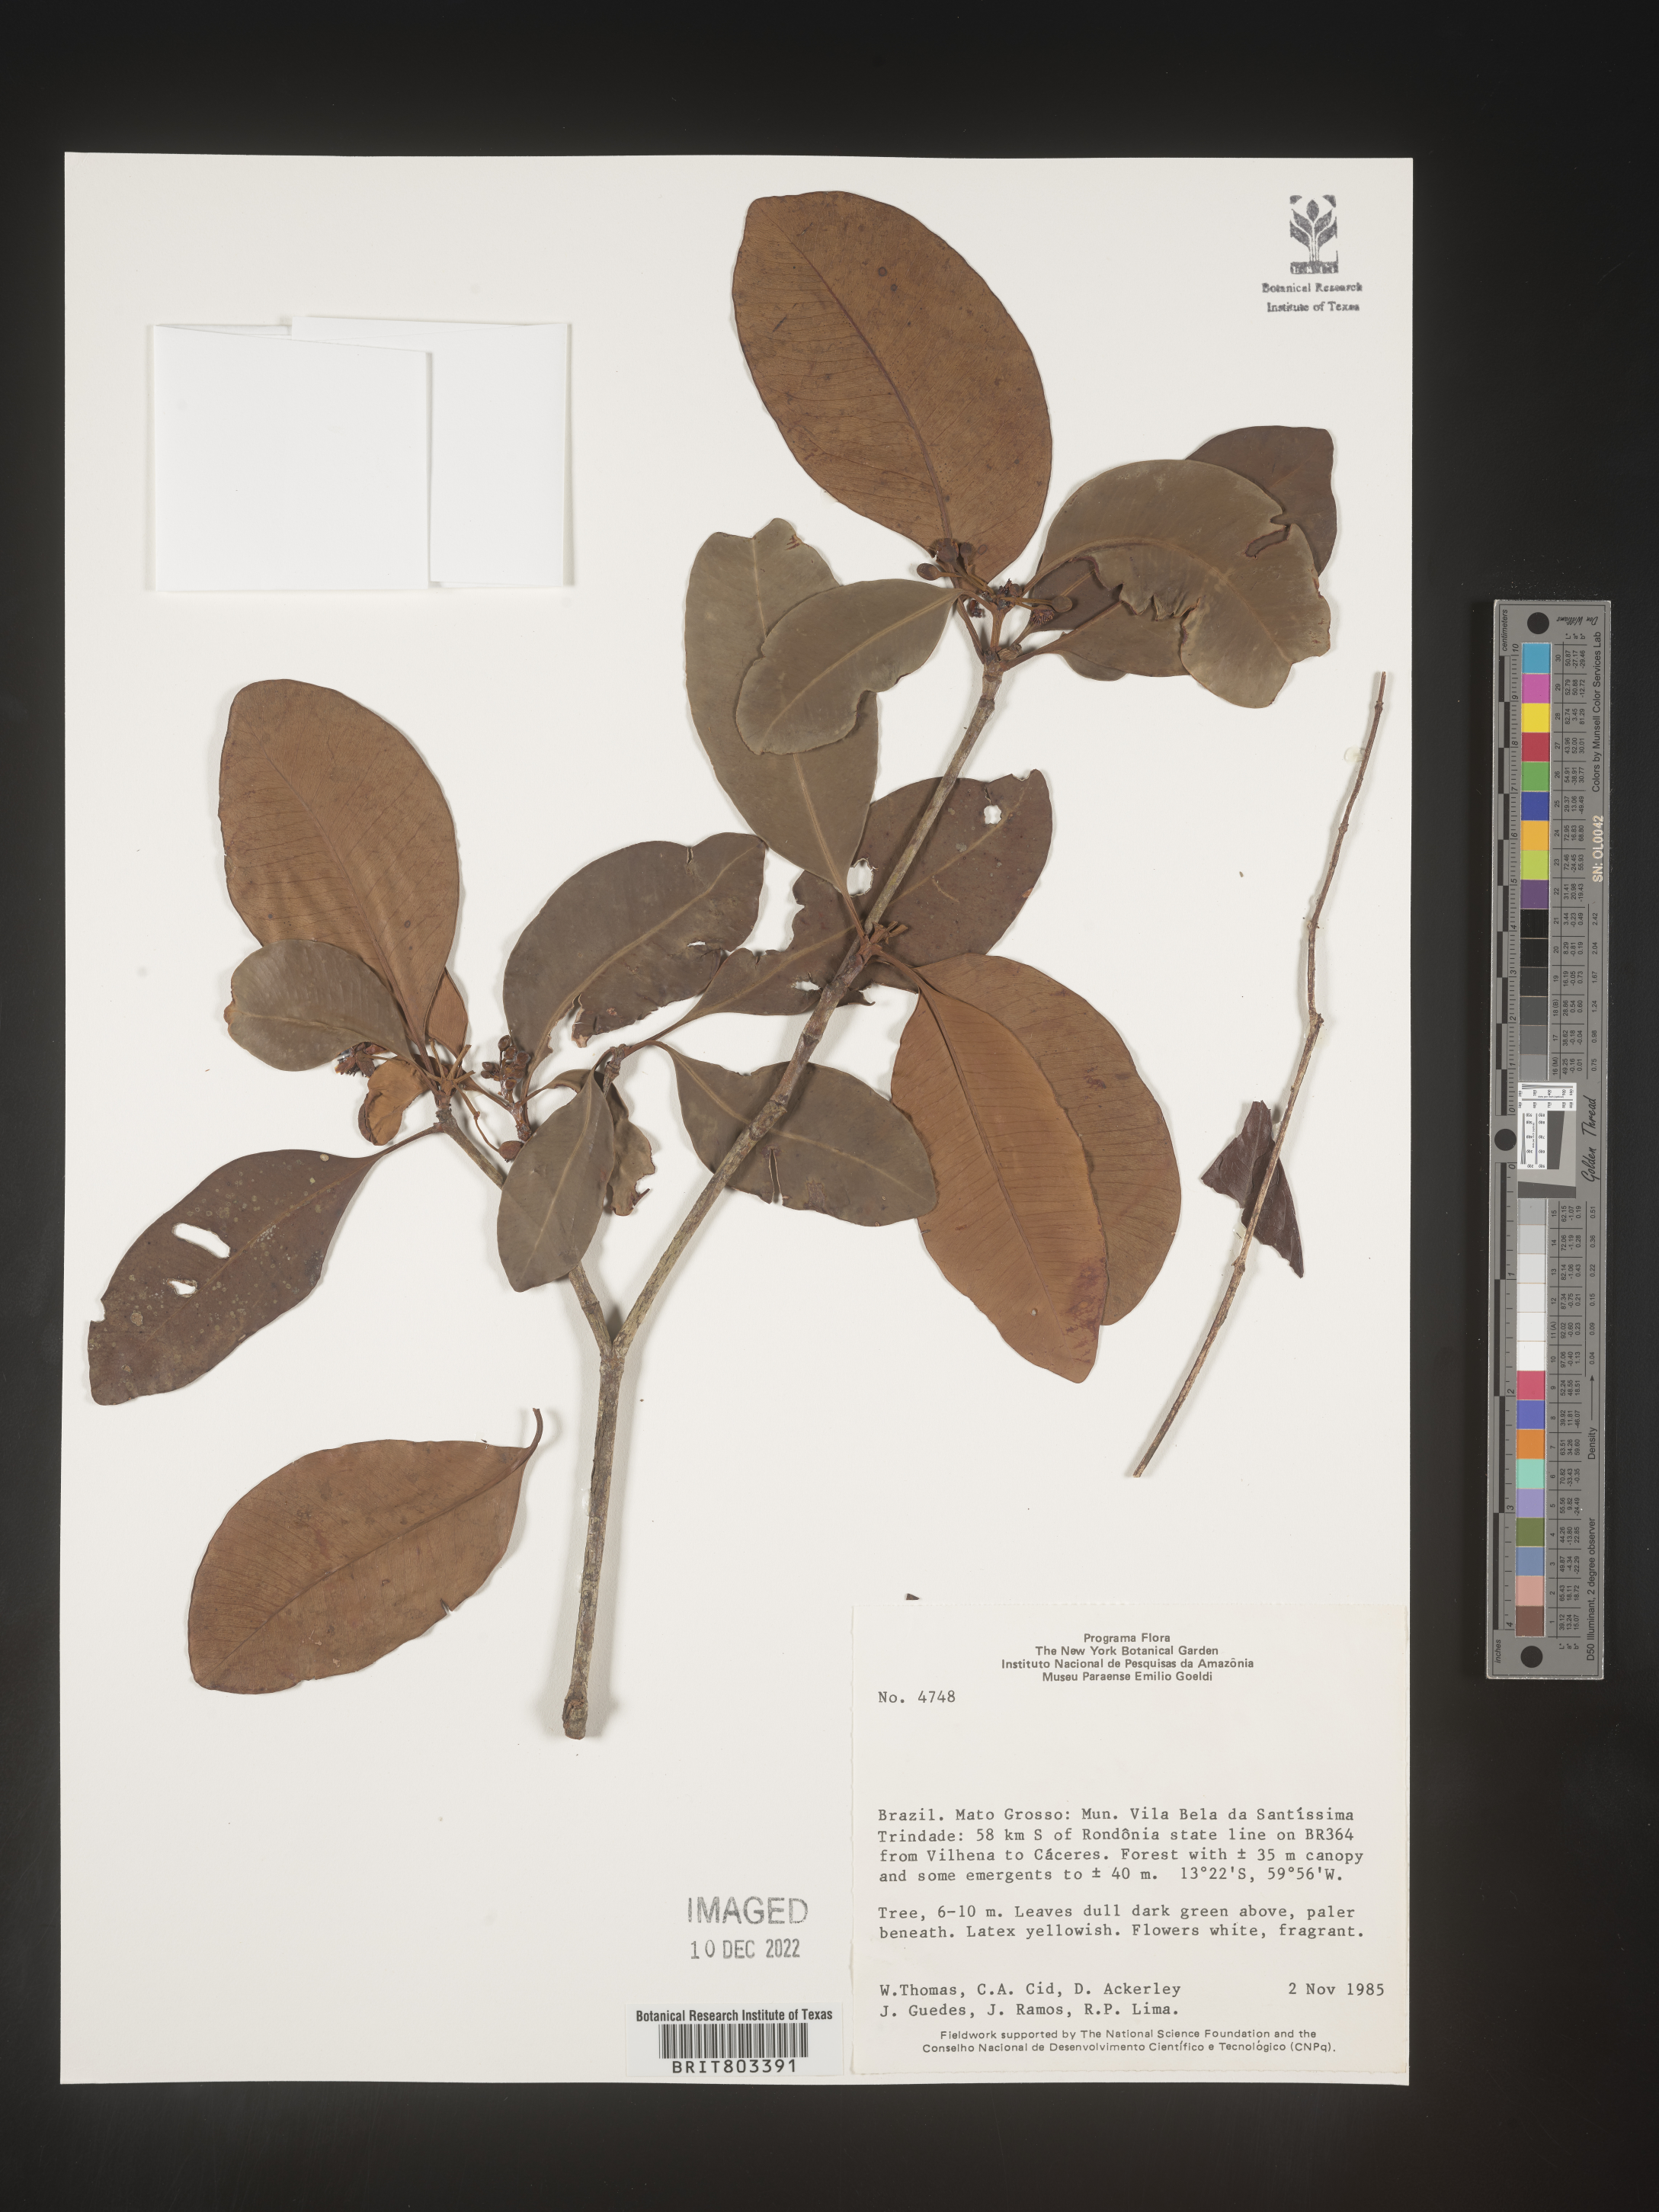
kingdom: Plantae
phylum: Tracheophyta
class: Magnoliopsida
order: Malpighiales
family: Clusiaceae
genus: Tovomita
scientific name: Tovomita
